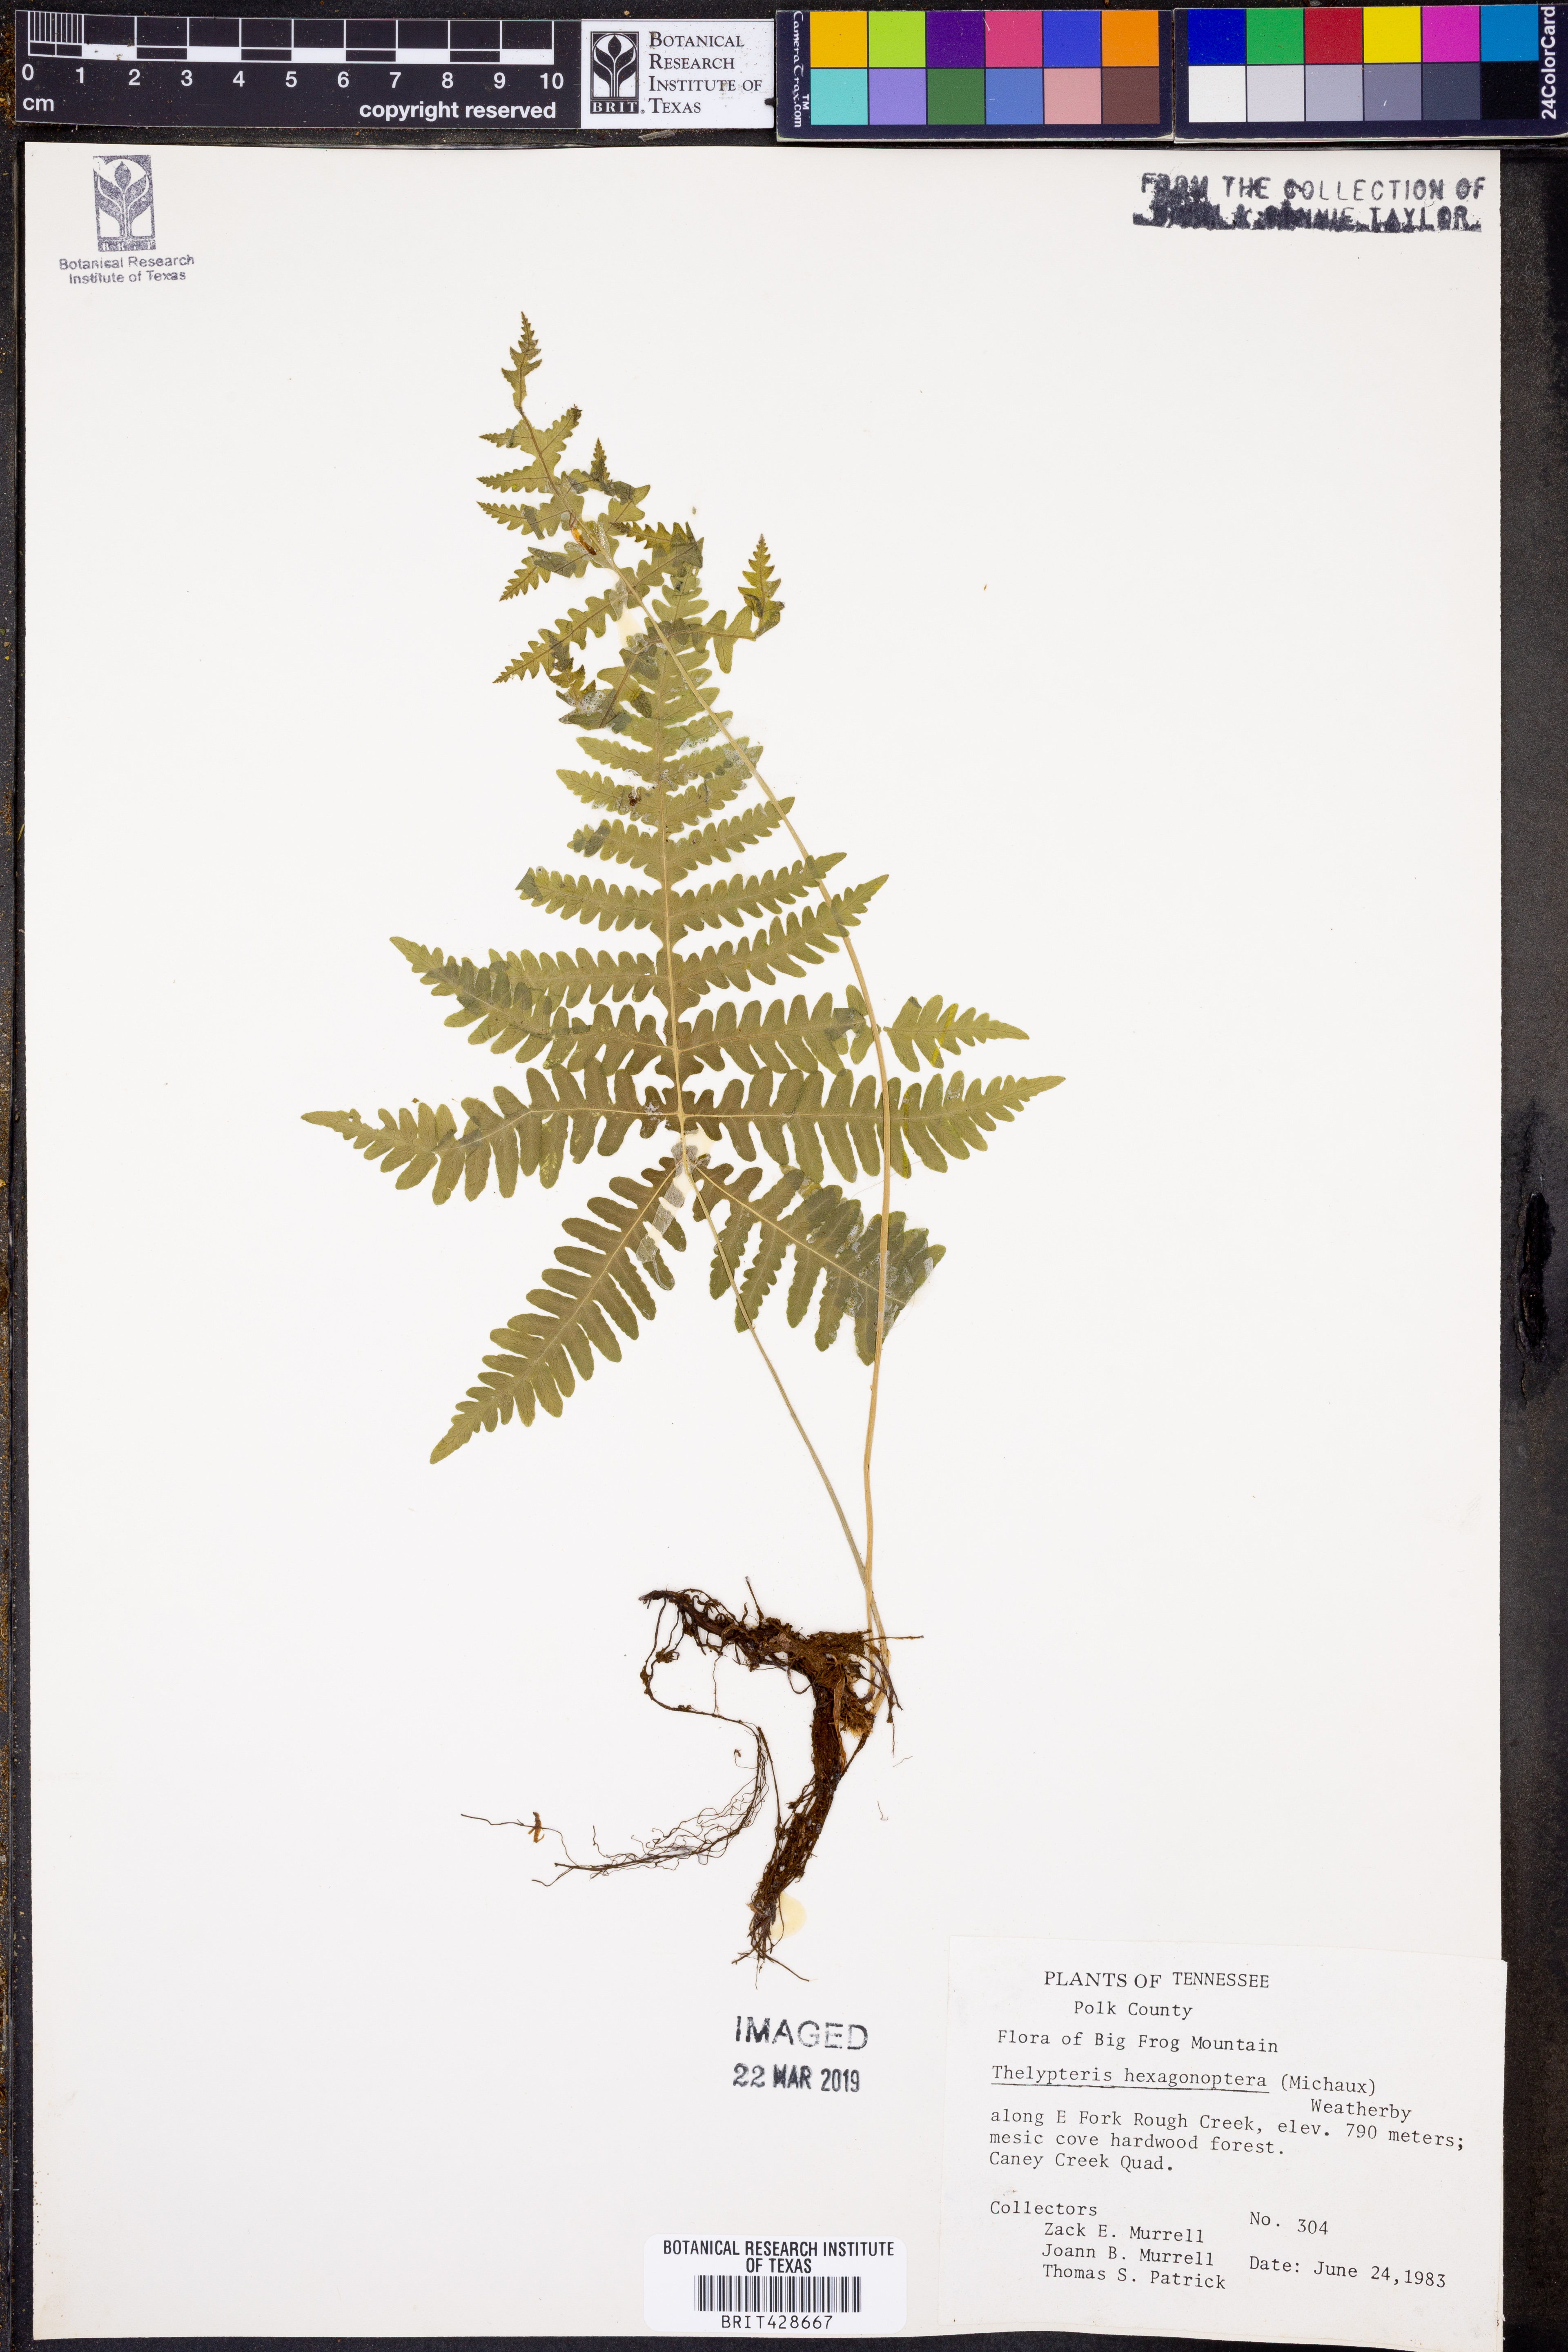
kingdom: Plantae
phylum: Tracheophyta
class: Polypodiopsida
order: Polypodiales
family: Thelypteridaceae
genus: Phegopteris
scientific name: Phegopteris hexagonoptera
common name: Broad beech fern
